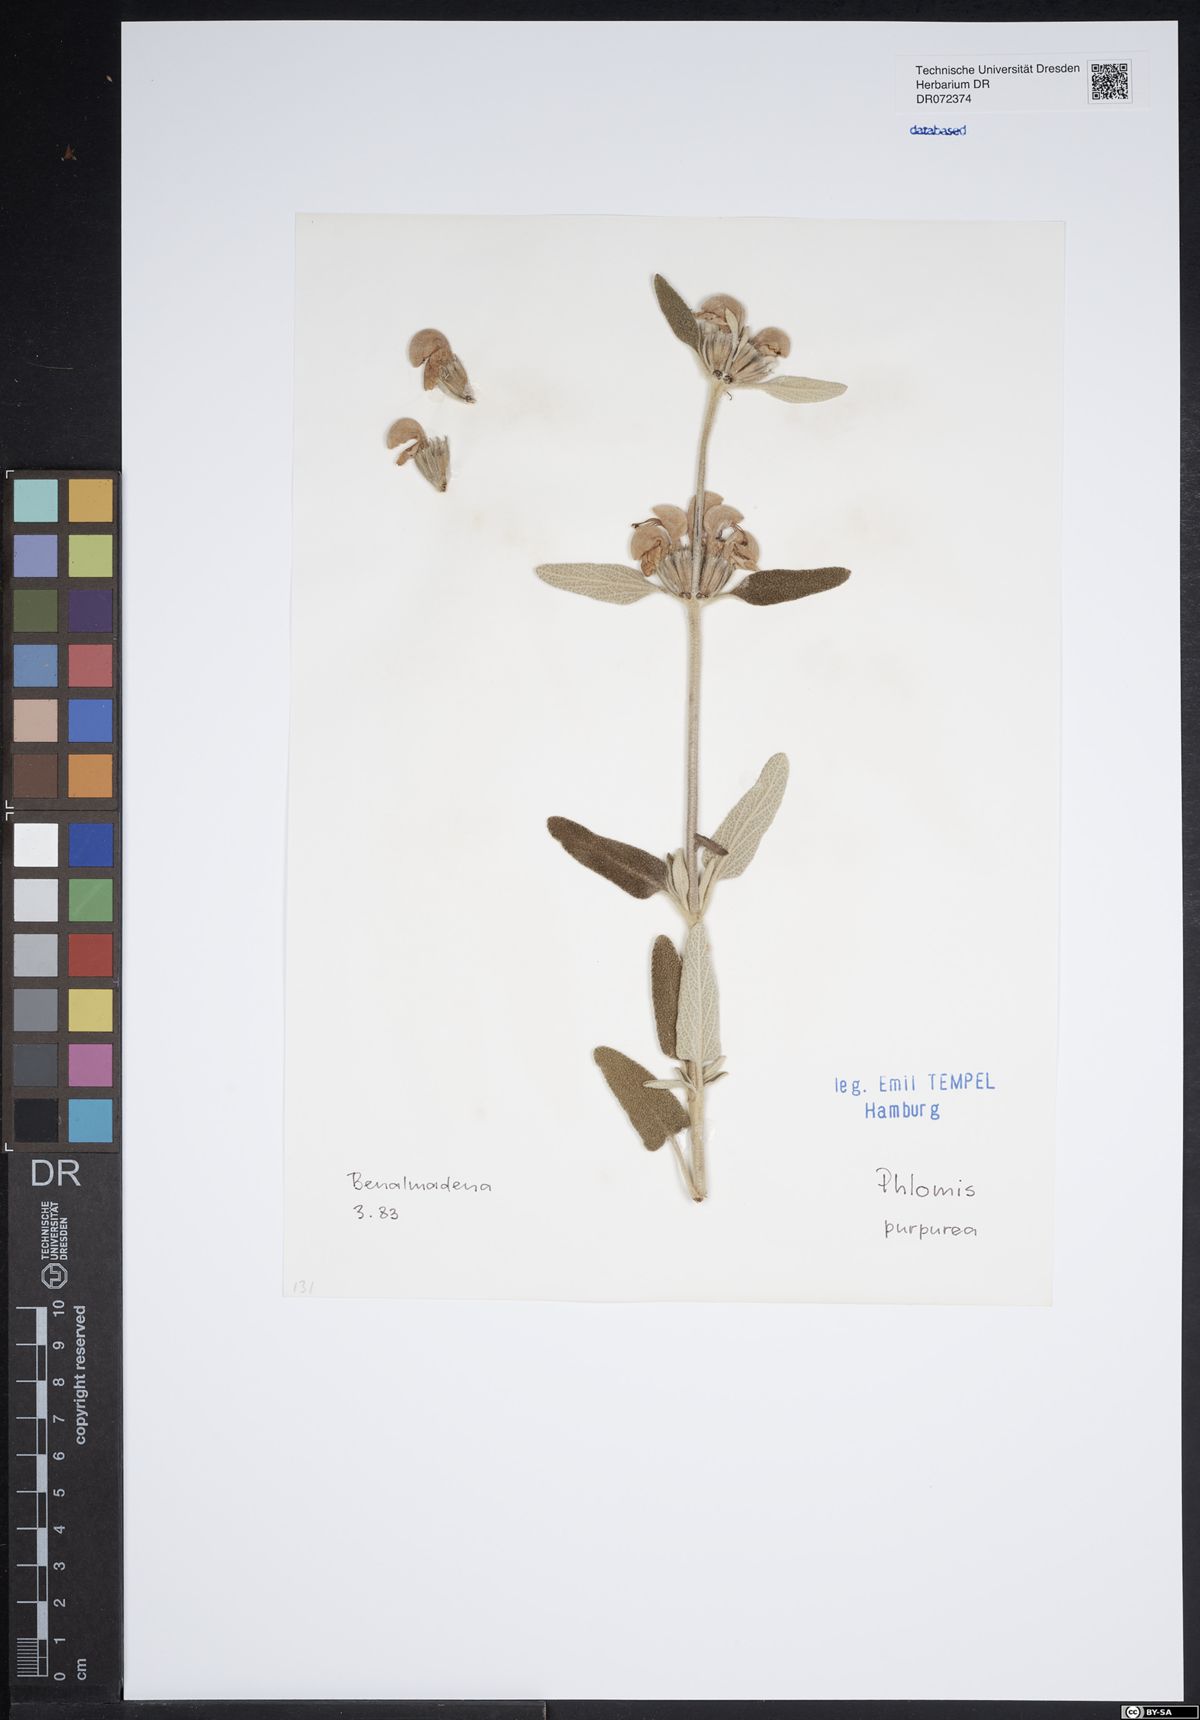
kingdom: Plantae
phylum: Tracheophyta
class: Magnoliopsida
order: Lamiales
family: Lamiaceae
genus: Phlomis
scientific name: Phlomis purpurea
